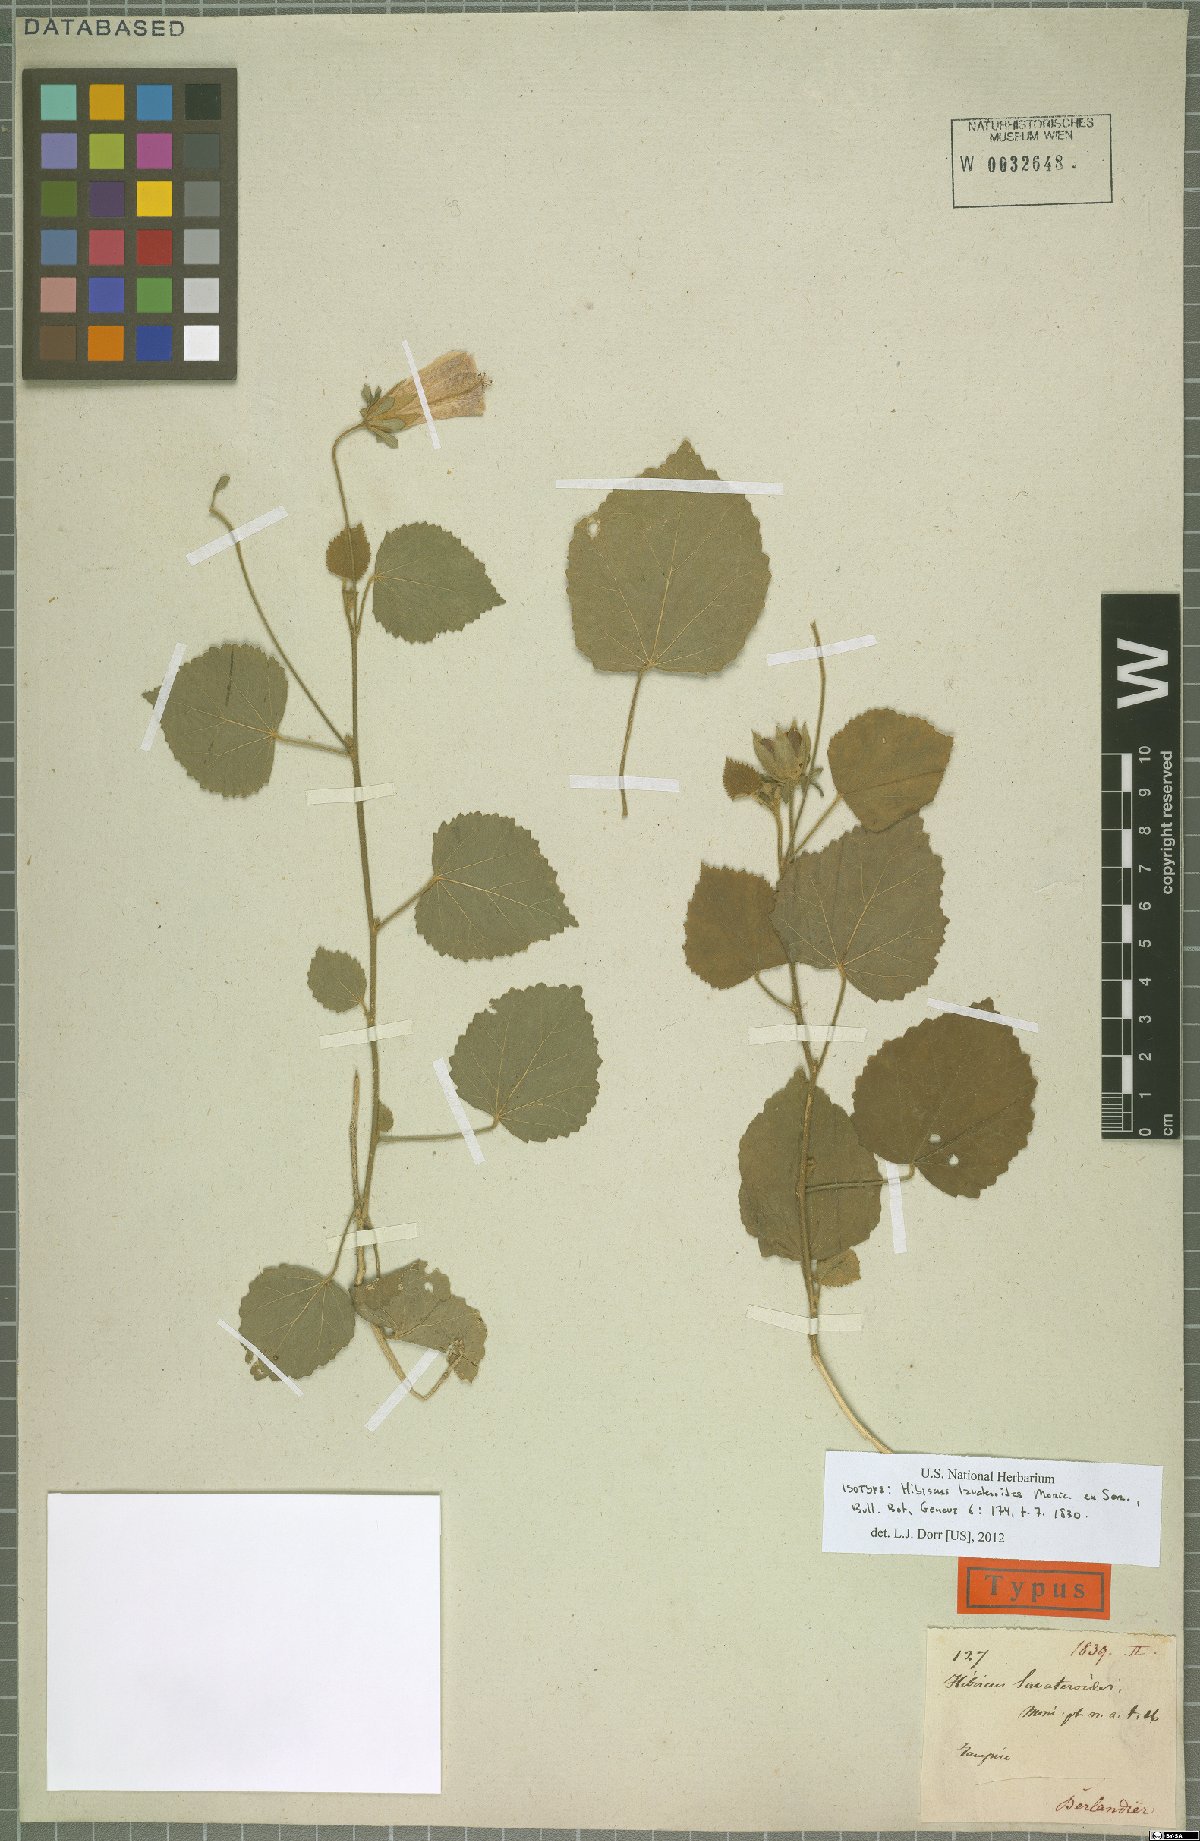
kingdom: Plantae
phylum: Tracheophyta
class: Magnoliopsida
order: Malvales
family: Malvaceae
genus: Hibiscus
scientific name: Hibiscus lavateroides
